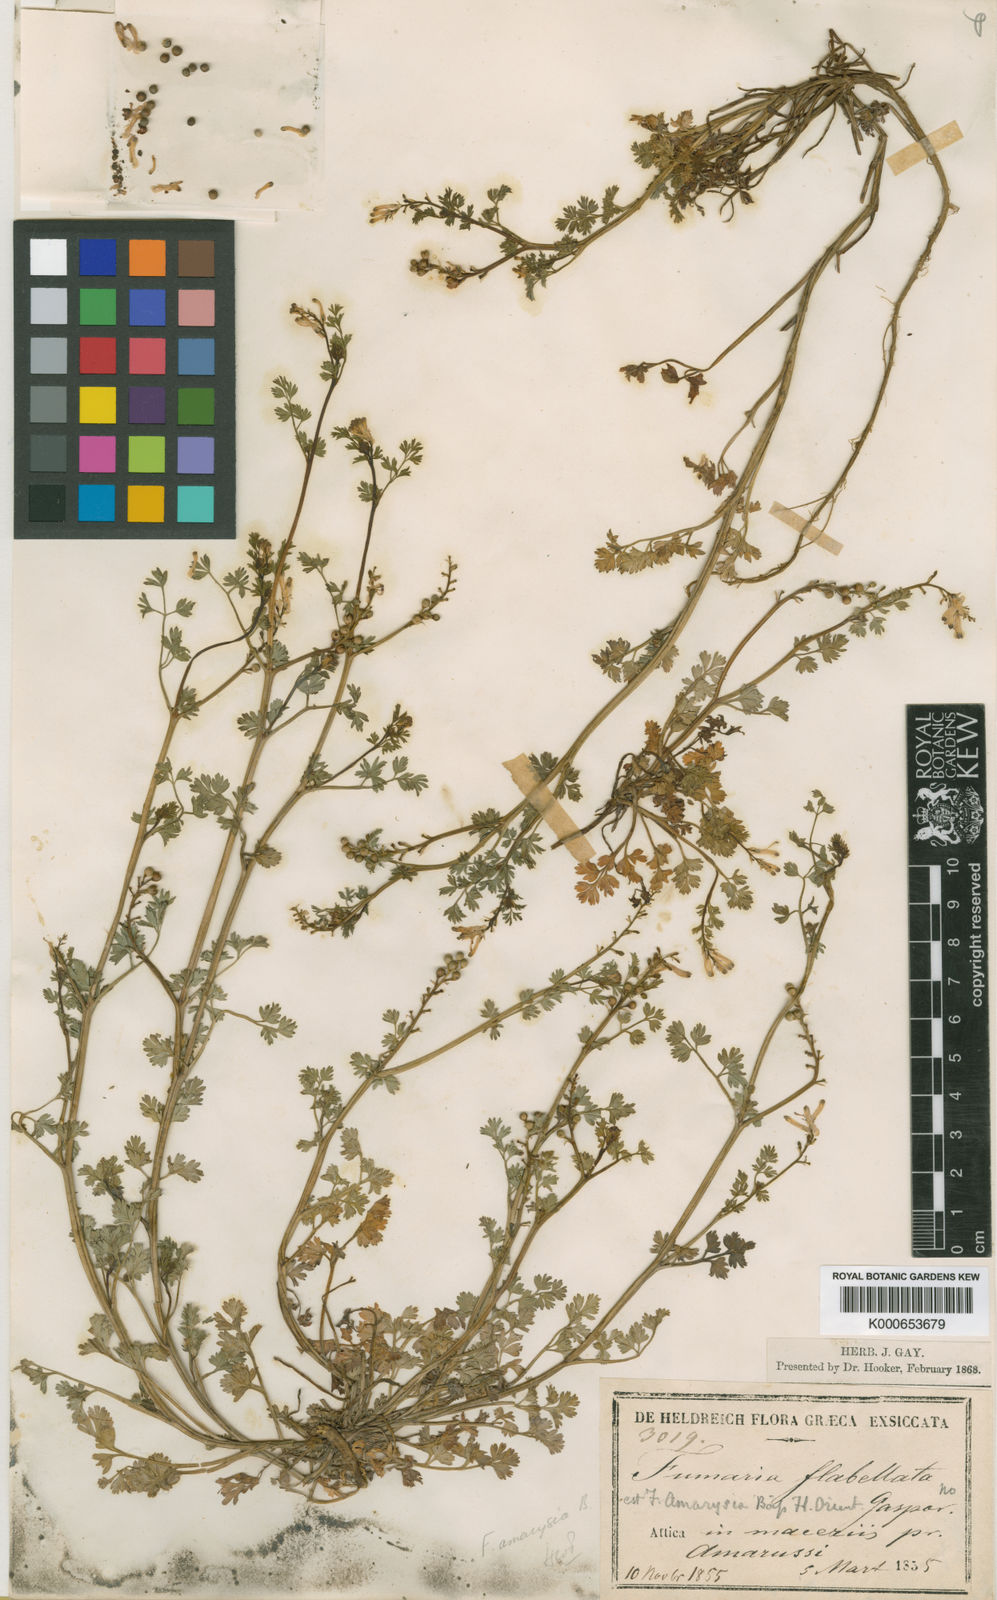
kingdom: Plantae
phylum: Tracheophyta
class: Magnoliopsida
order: Ranunculales
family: Papaveraceae
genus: Fumaria
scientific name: Fumaria judaica
